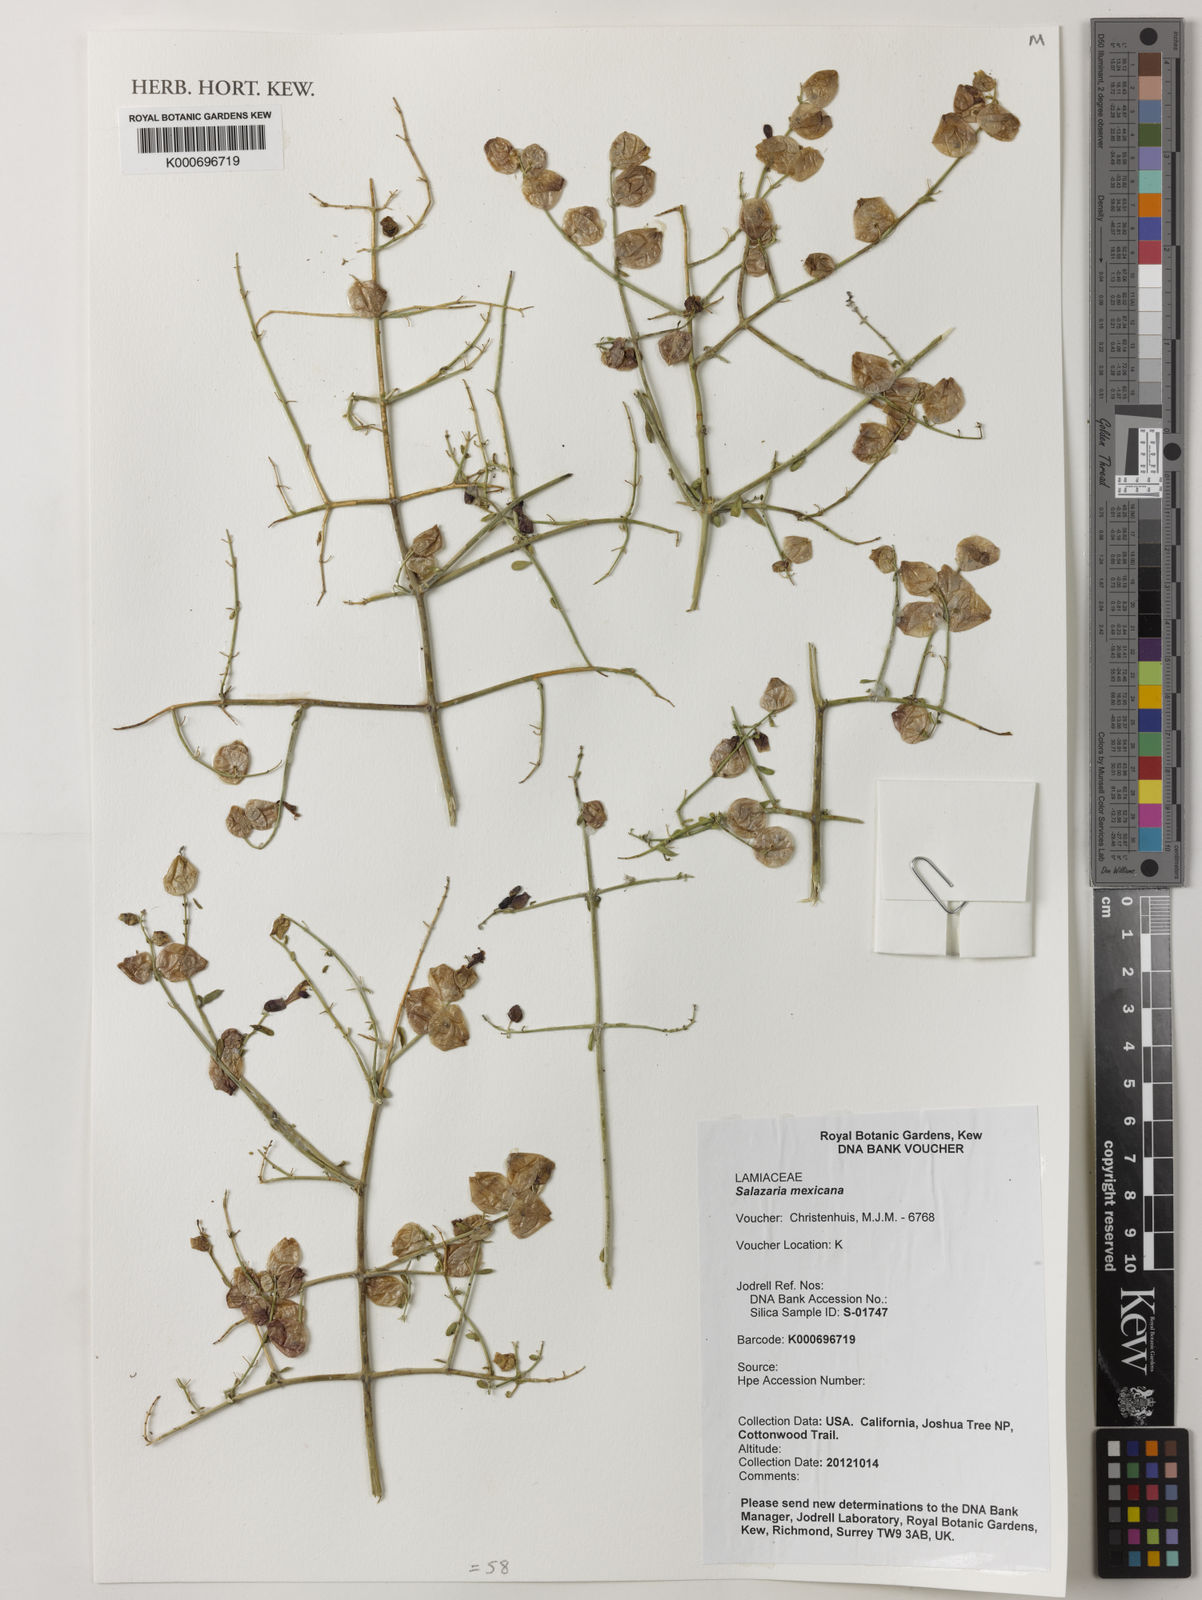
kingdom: Plantae
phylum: Tracheophyta
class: Magnoliopsida
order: Lamiales
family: Lamiaceae
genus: Scutellaria
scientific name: Scutellaria mexicana
